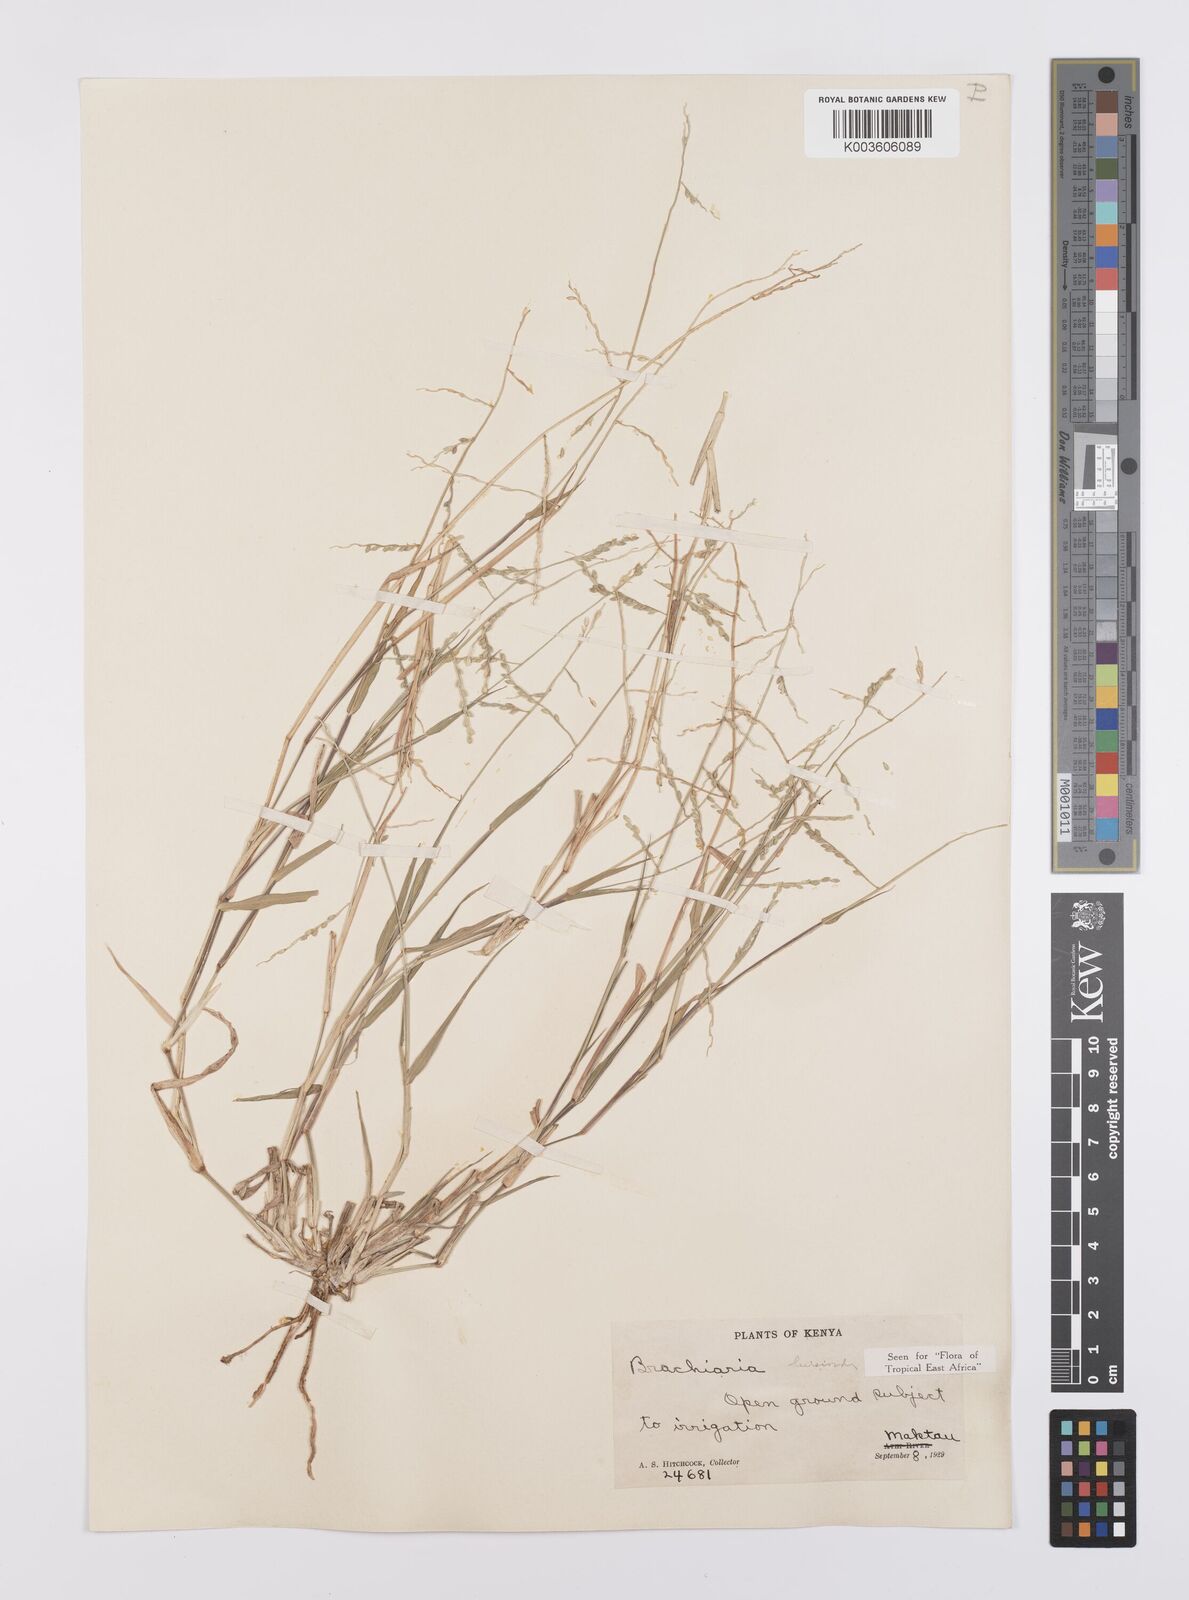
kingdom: Plantae
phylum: Tracheophyta
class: Liliopsida
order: Poales
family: Poaceae
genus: Urochloa
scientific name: Urochloa leersioides
